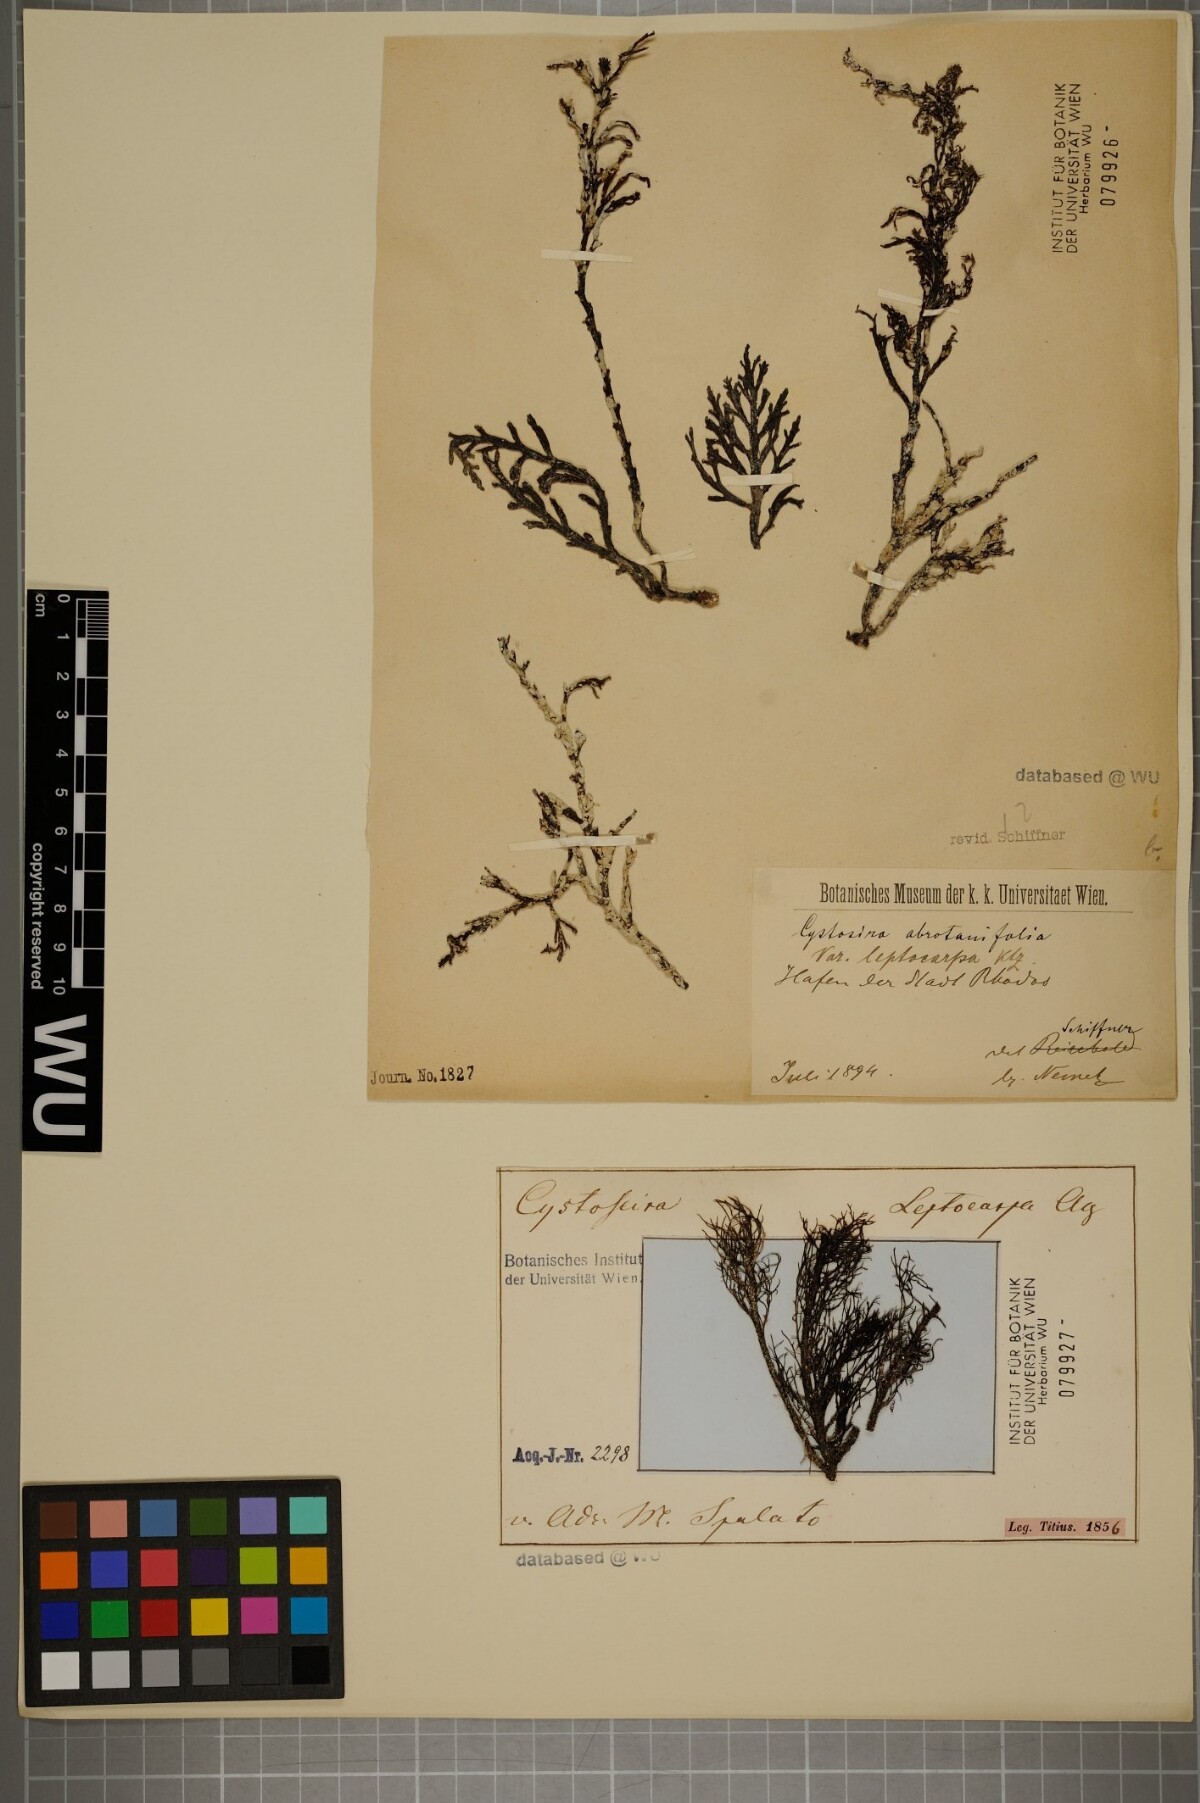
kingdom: Chromista
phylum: Ochrophyta
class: Phaeophyceae
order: Fucales
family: Sargassaceae
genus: Cystoseira
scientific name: Cystoseira foeniculacea
